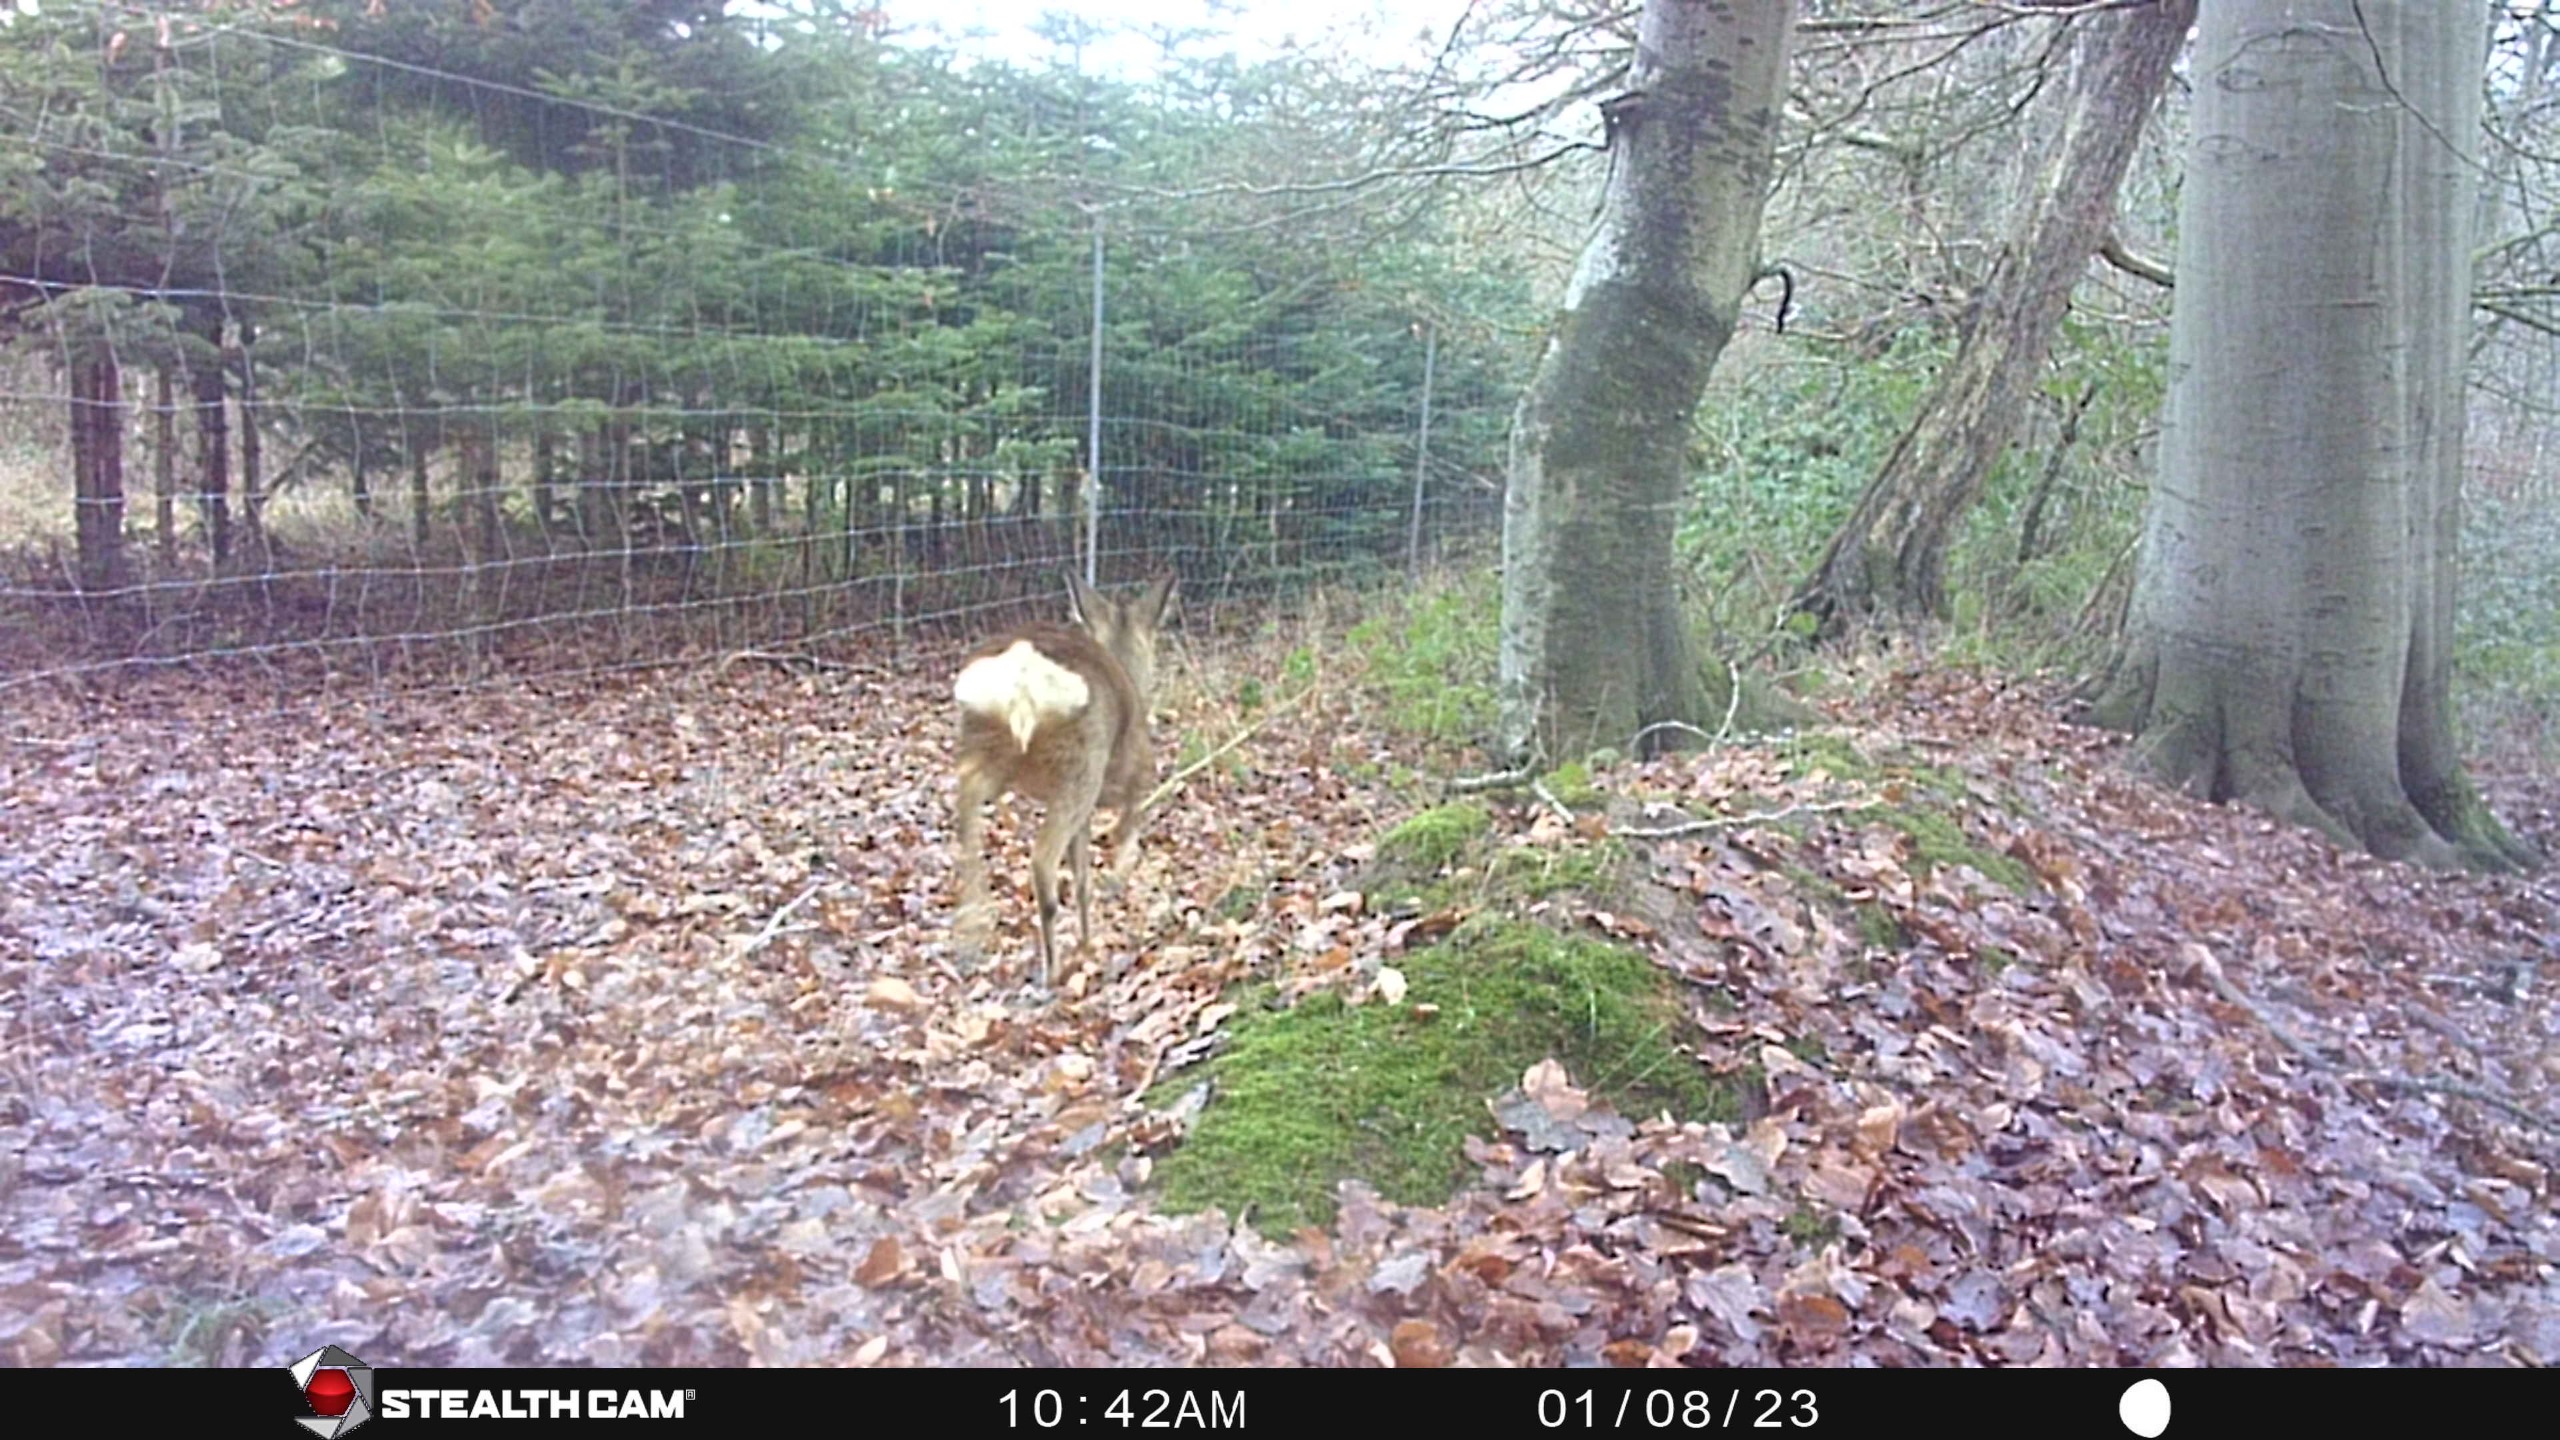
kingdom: Animalia
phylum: Chordata
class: Mammalia
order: Artiodactyla
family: Cervidae
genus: Capreolus
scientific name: Capreolus capreolus
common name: Rådyr
